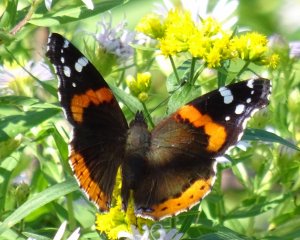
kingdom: Animalia
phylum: Arthropoda
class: Insecta
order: Lepidoptera
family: Nymphalidae
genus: Vanessa
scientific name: Vanessa atalanta
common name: Red Admiral
